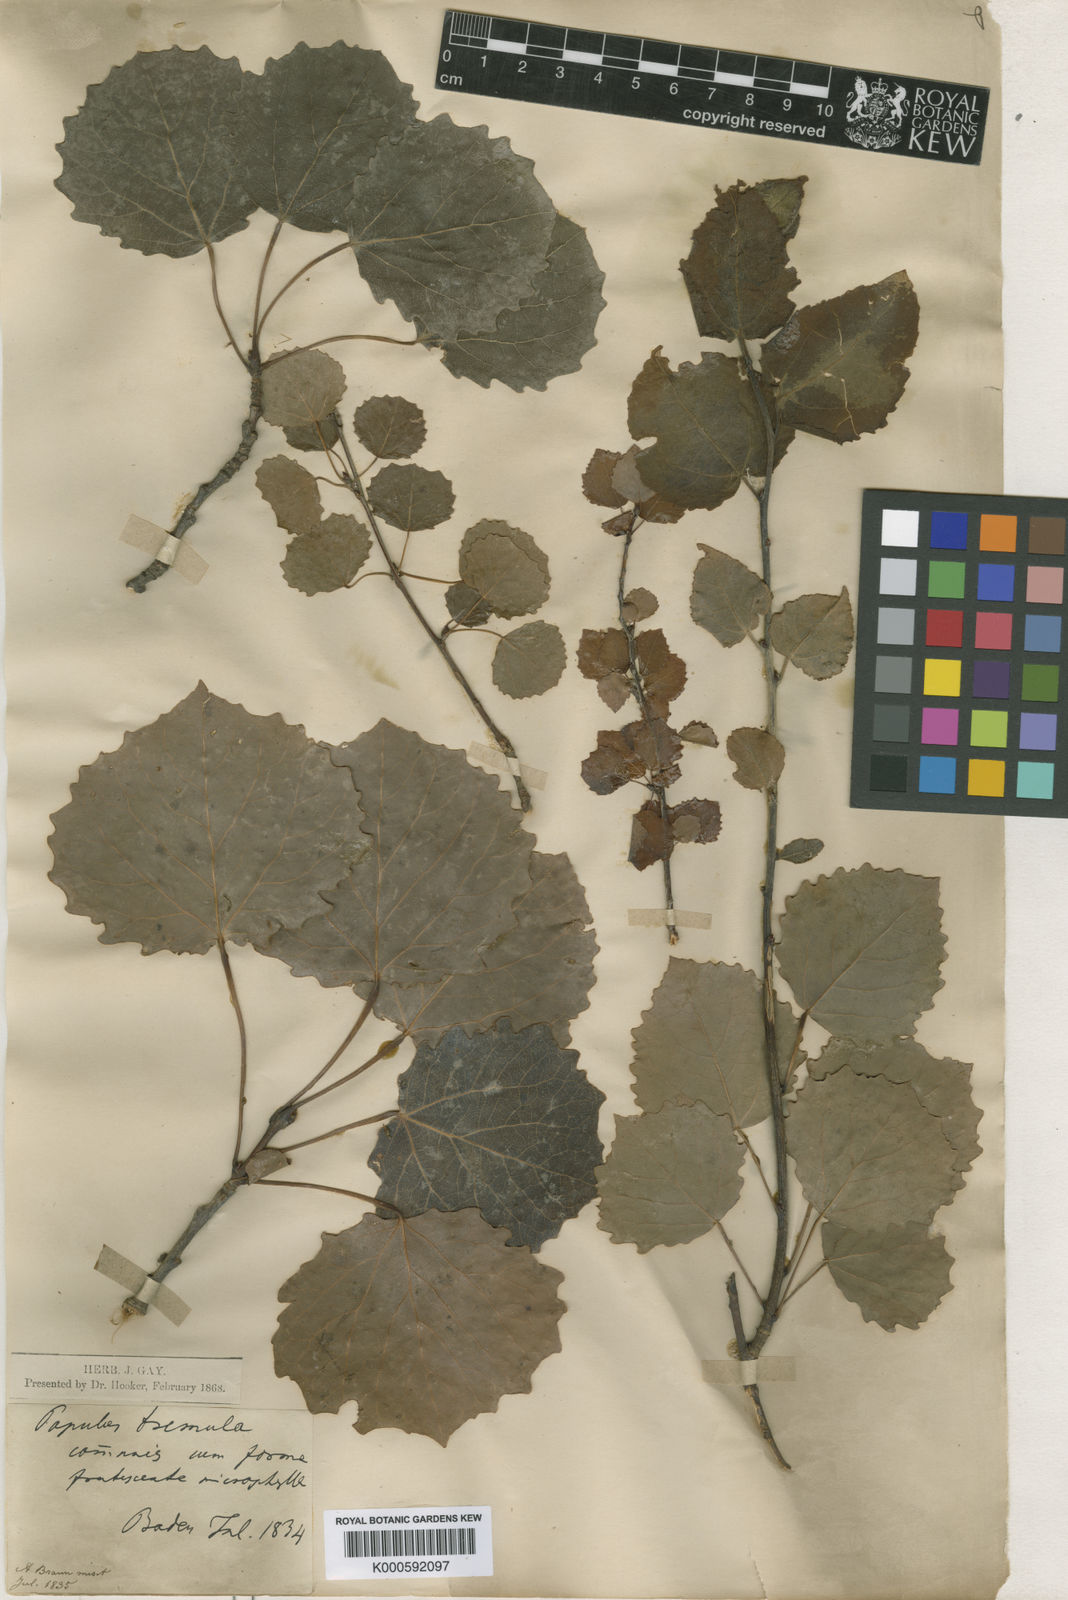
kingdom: Plantae
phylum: Tracheophyta
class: Magnoliopsida
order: Malpighiales
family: Salicaceae
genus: Populus
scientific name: Populus tremula
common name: European aspen
